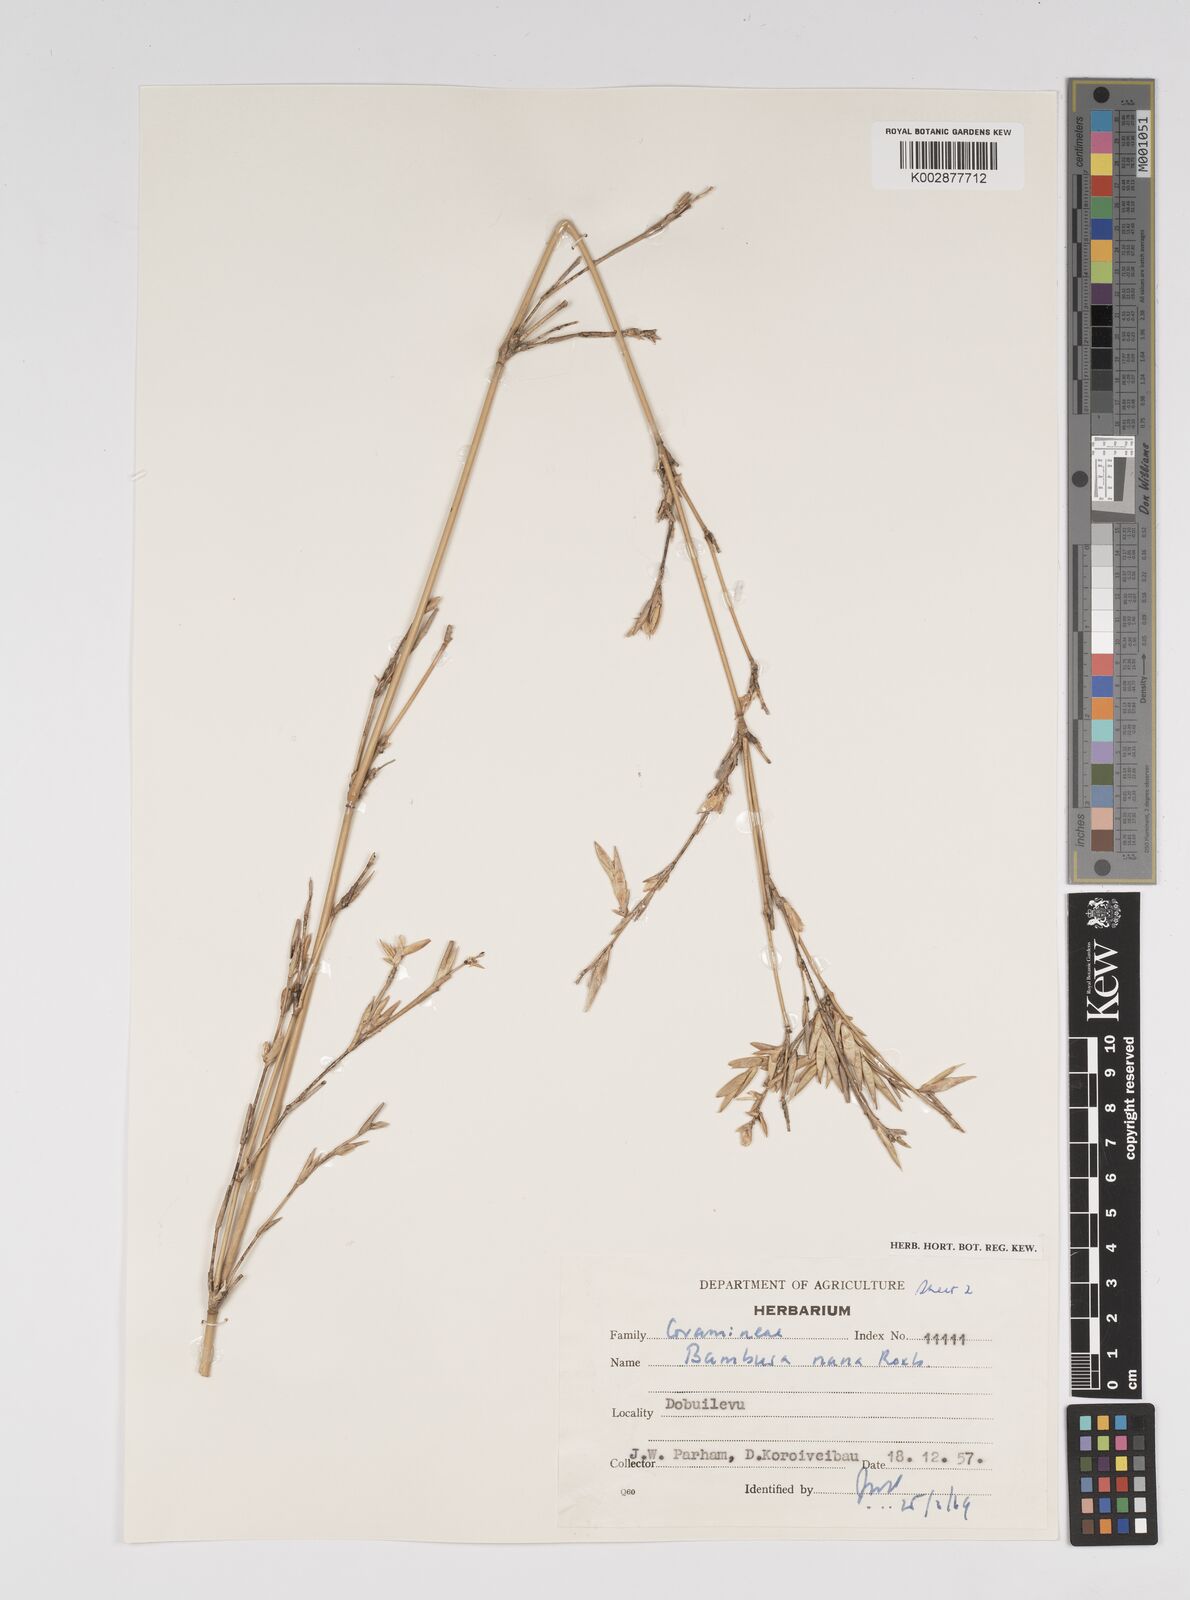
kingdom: Plantae
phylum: Tracheophyta
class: Liliopsida
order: Poales
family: Poaceae
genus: Bambusa
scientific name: Bambusa multiplex
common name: Hedge bamboo
